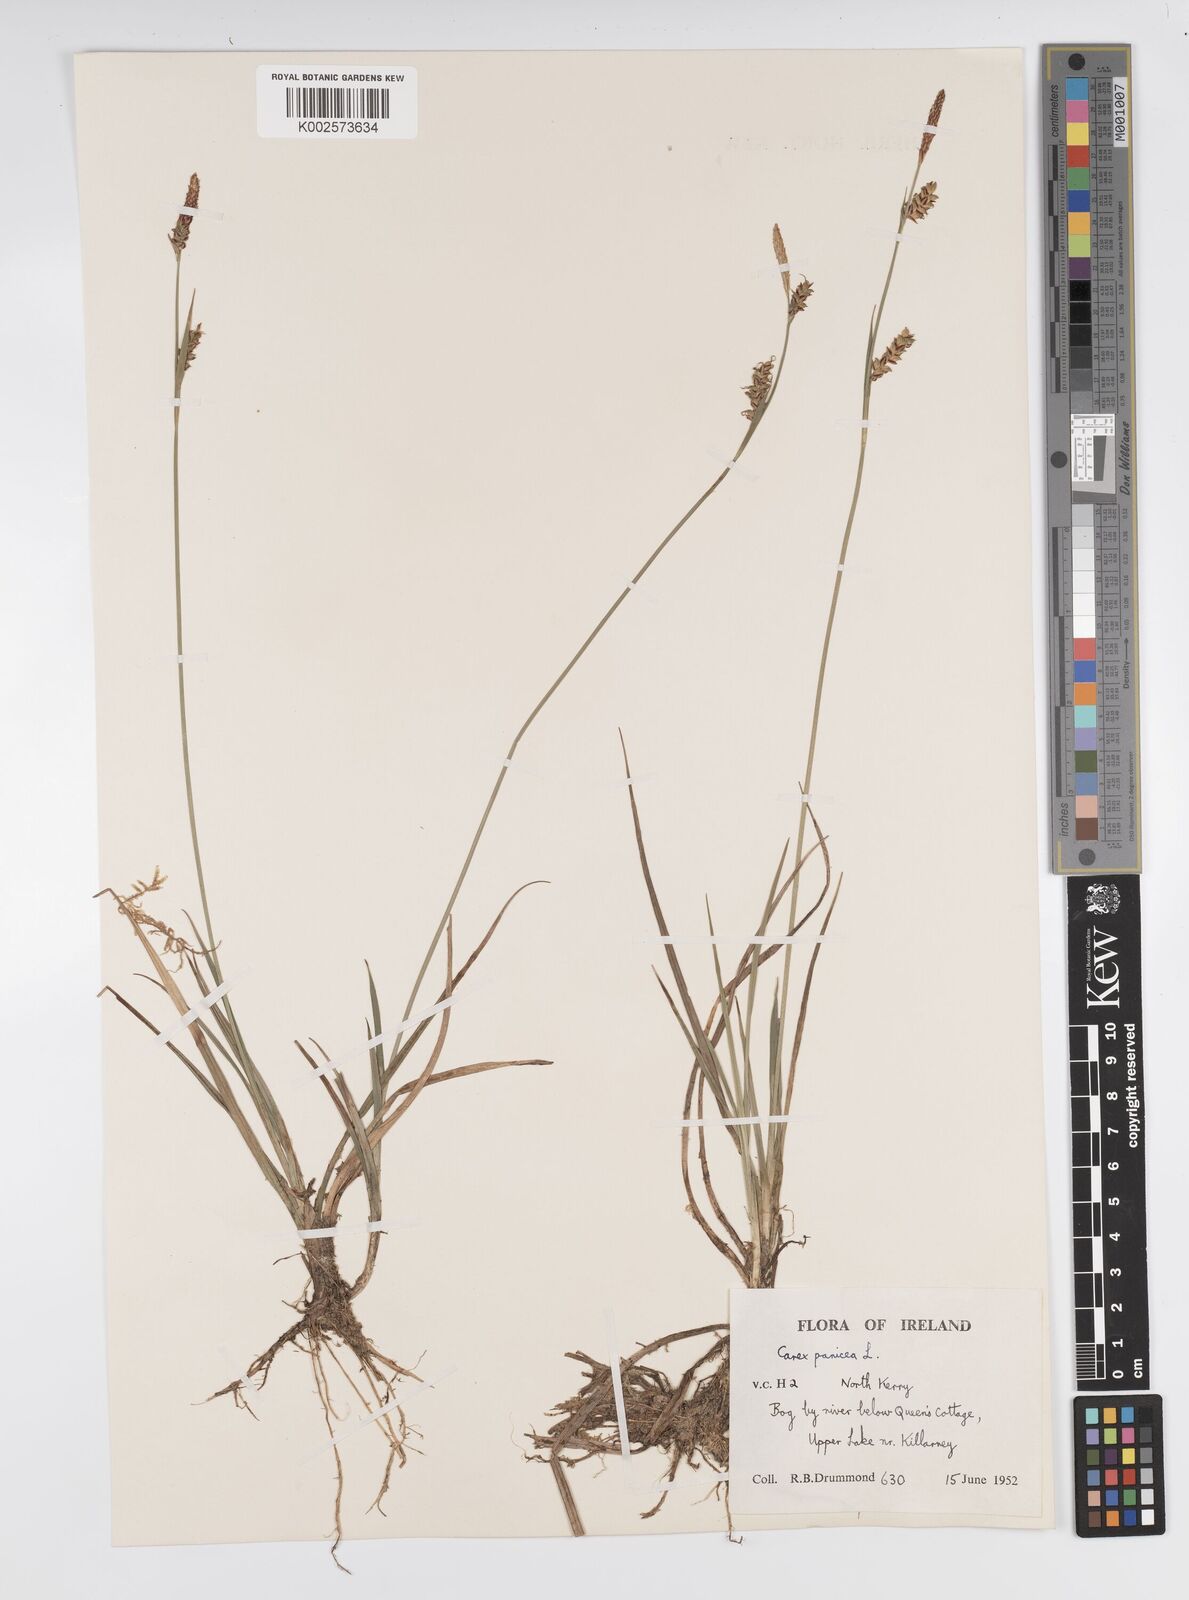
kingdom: Plantae
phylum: Tracheophyta
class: Liliopsida
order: Poales
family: Cyperaceae
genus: Carex
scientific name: Carex panicea
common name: Carnation sedge
